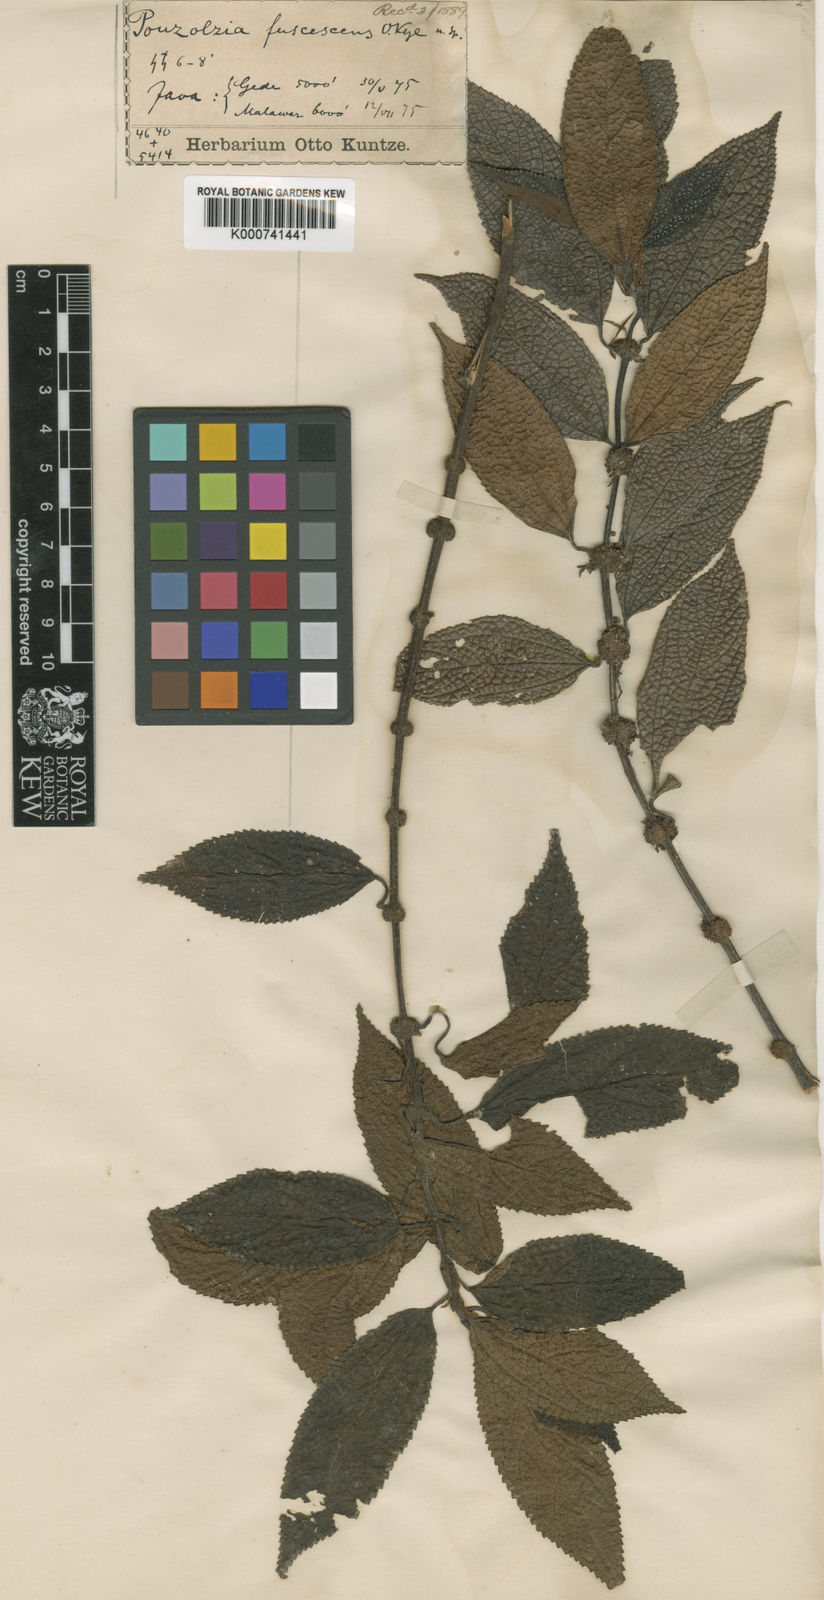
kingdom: Plantae
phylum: Tracheophyta
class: Magnoliopsida
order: Rosales
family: Urticaceae
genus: Cypholophus
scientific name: Cypholophus lutescens
